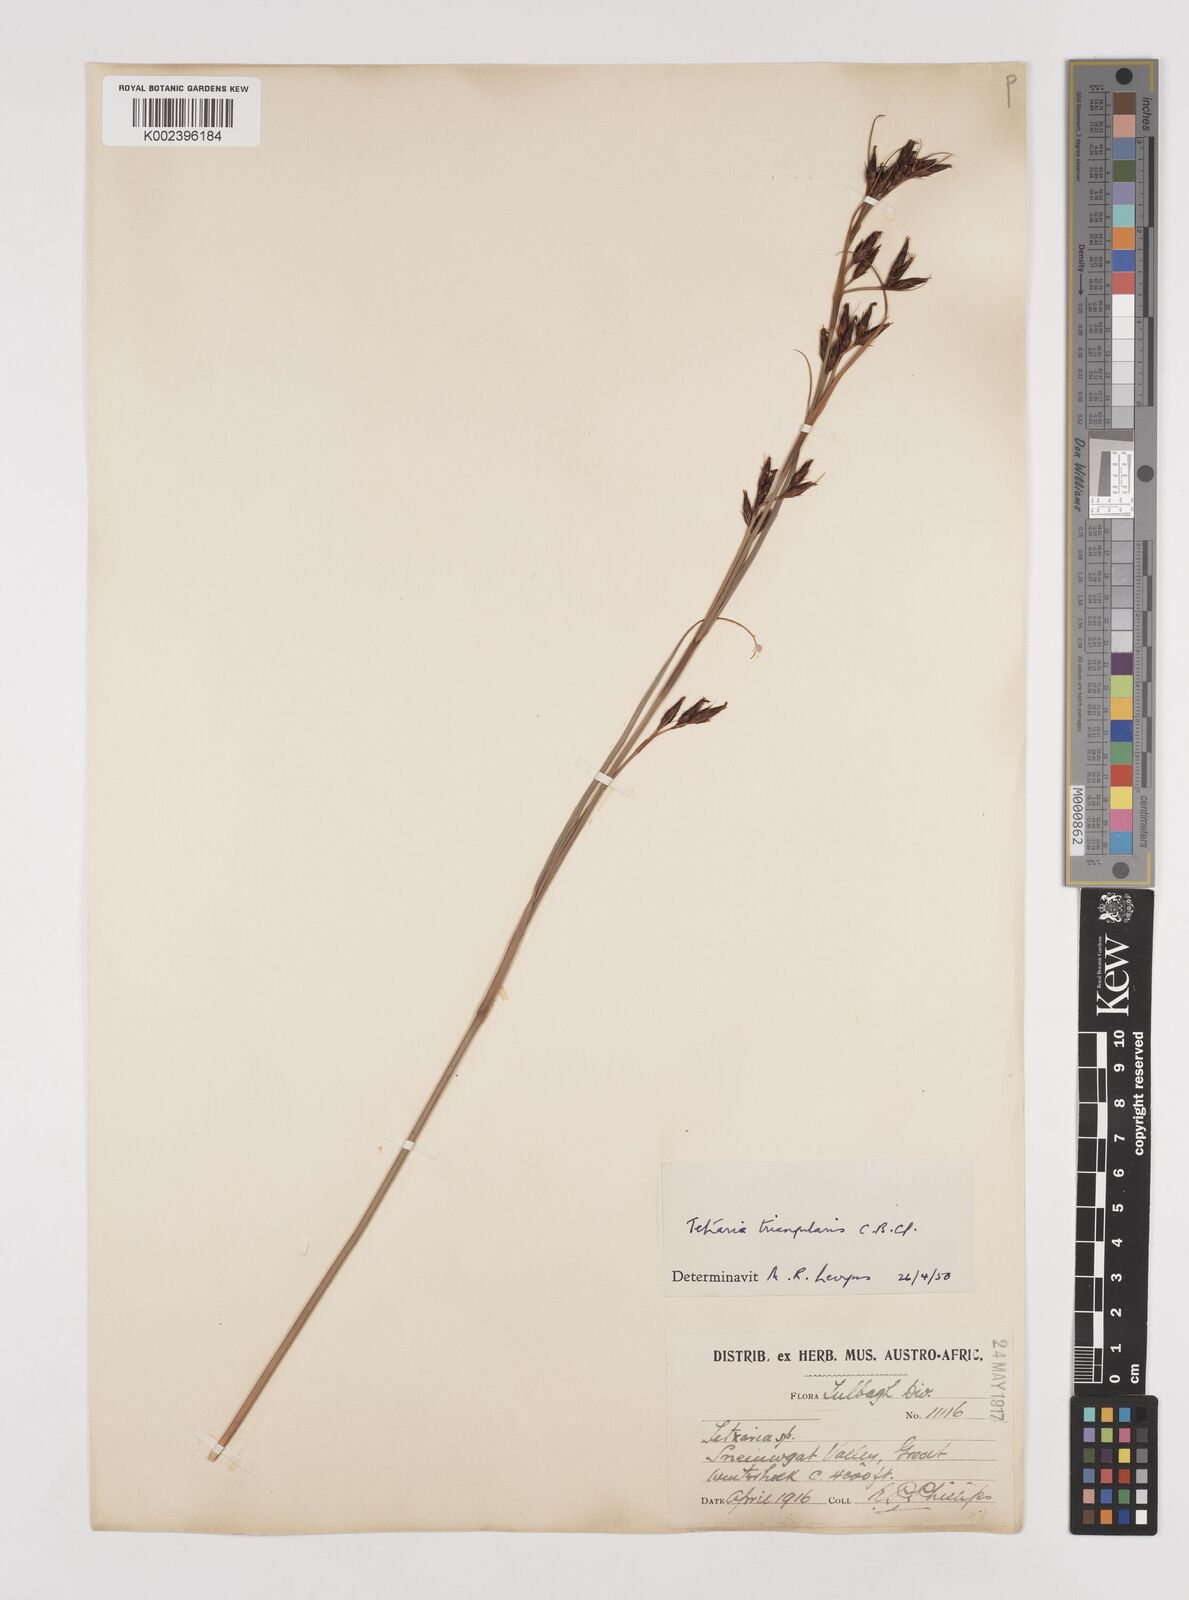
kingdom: Plantae
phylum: Tracheophyta
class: Liliopsida
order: Poales
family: Cyperaceae
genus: Tetraria
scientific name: Tetraria triangularis
